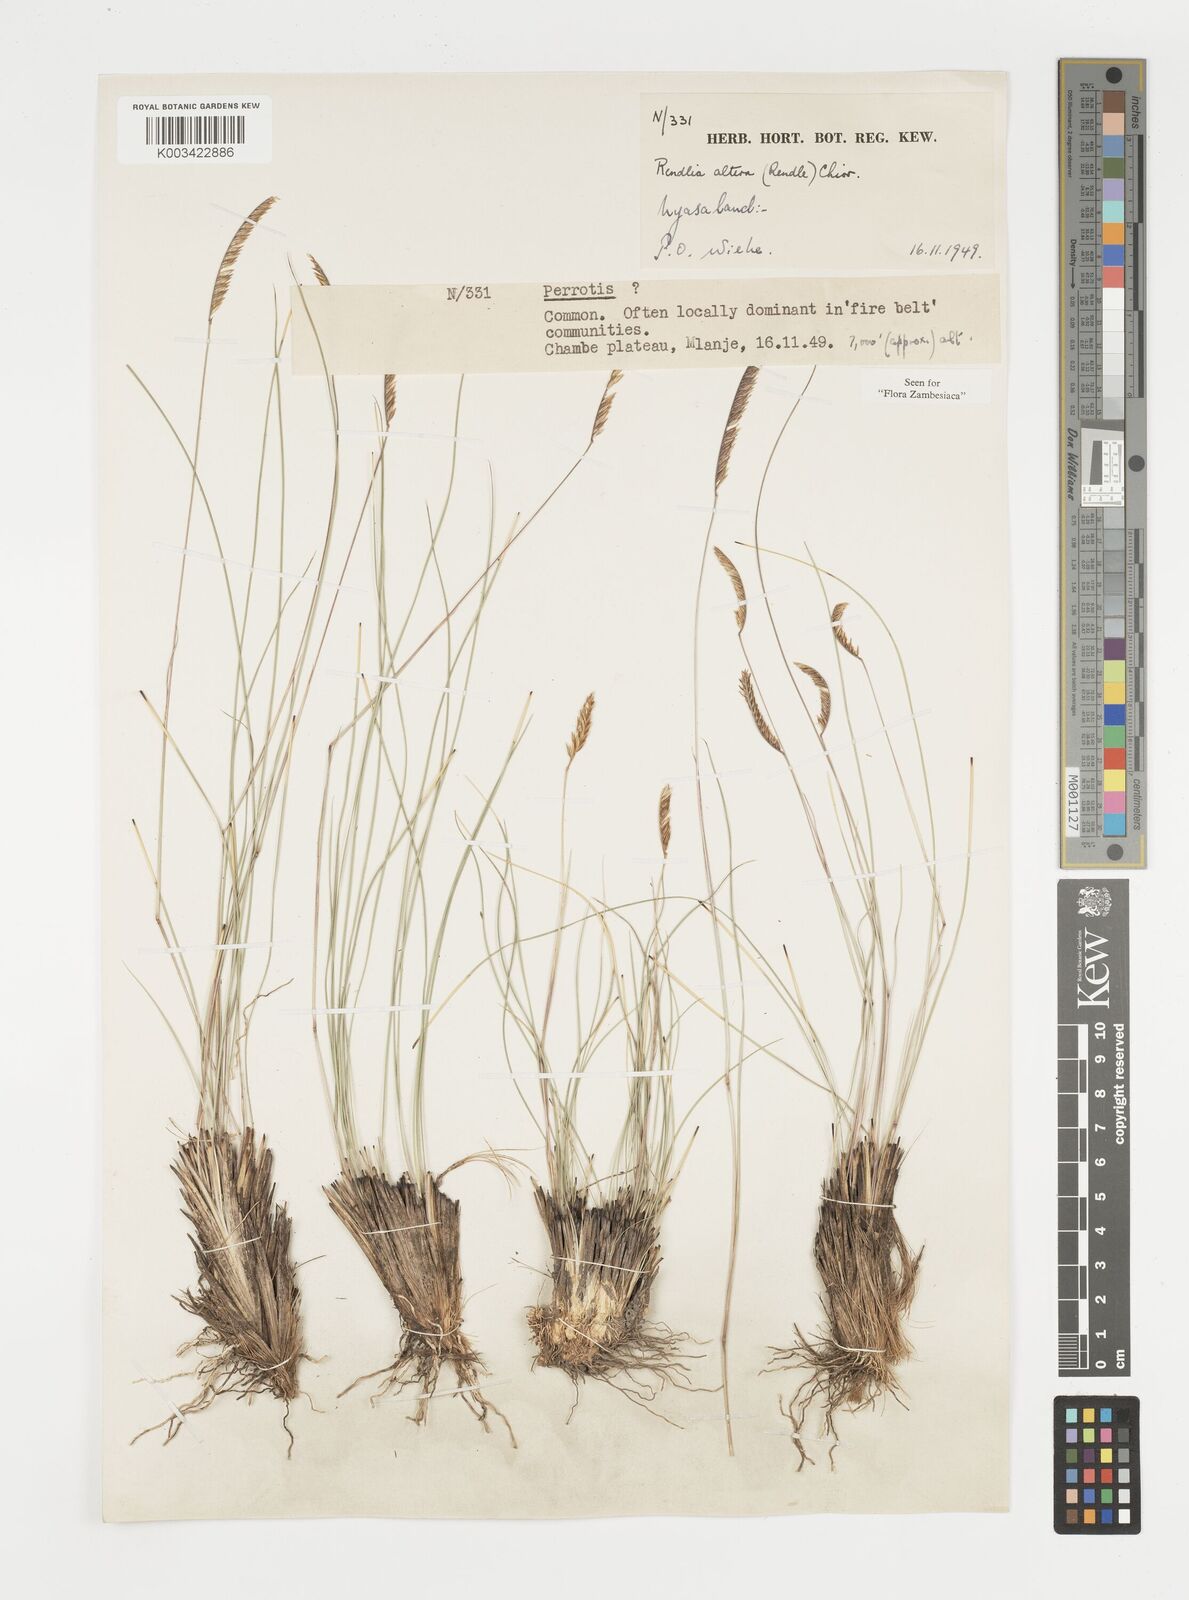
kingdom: Plantae
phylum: Tracheophyta
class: Liliopsida
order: Poales
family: Poaceae
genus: Microchloa
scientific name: Microchloa altera
